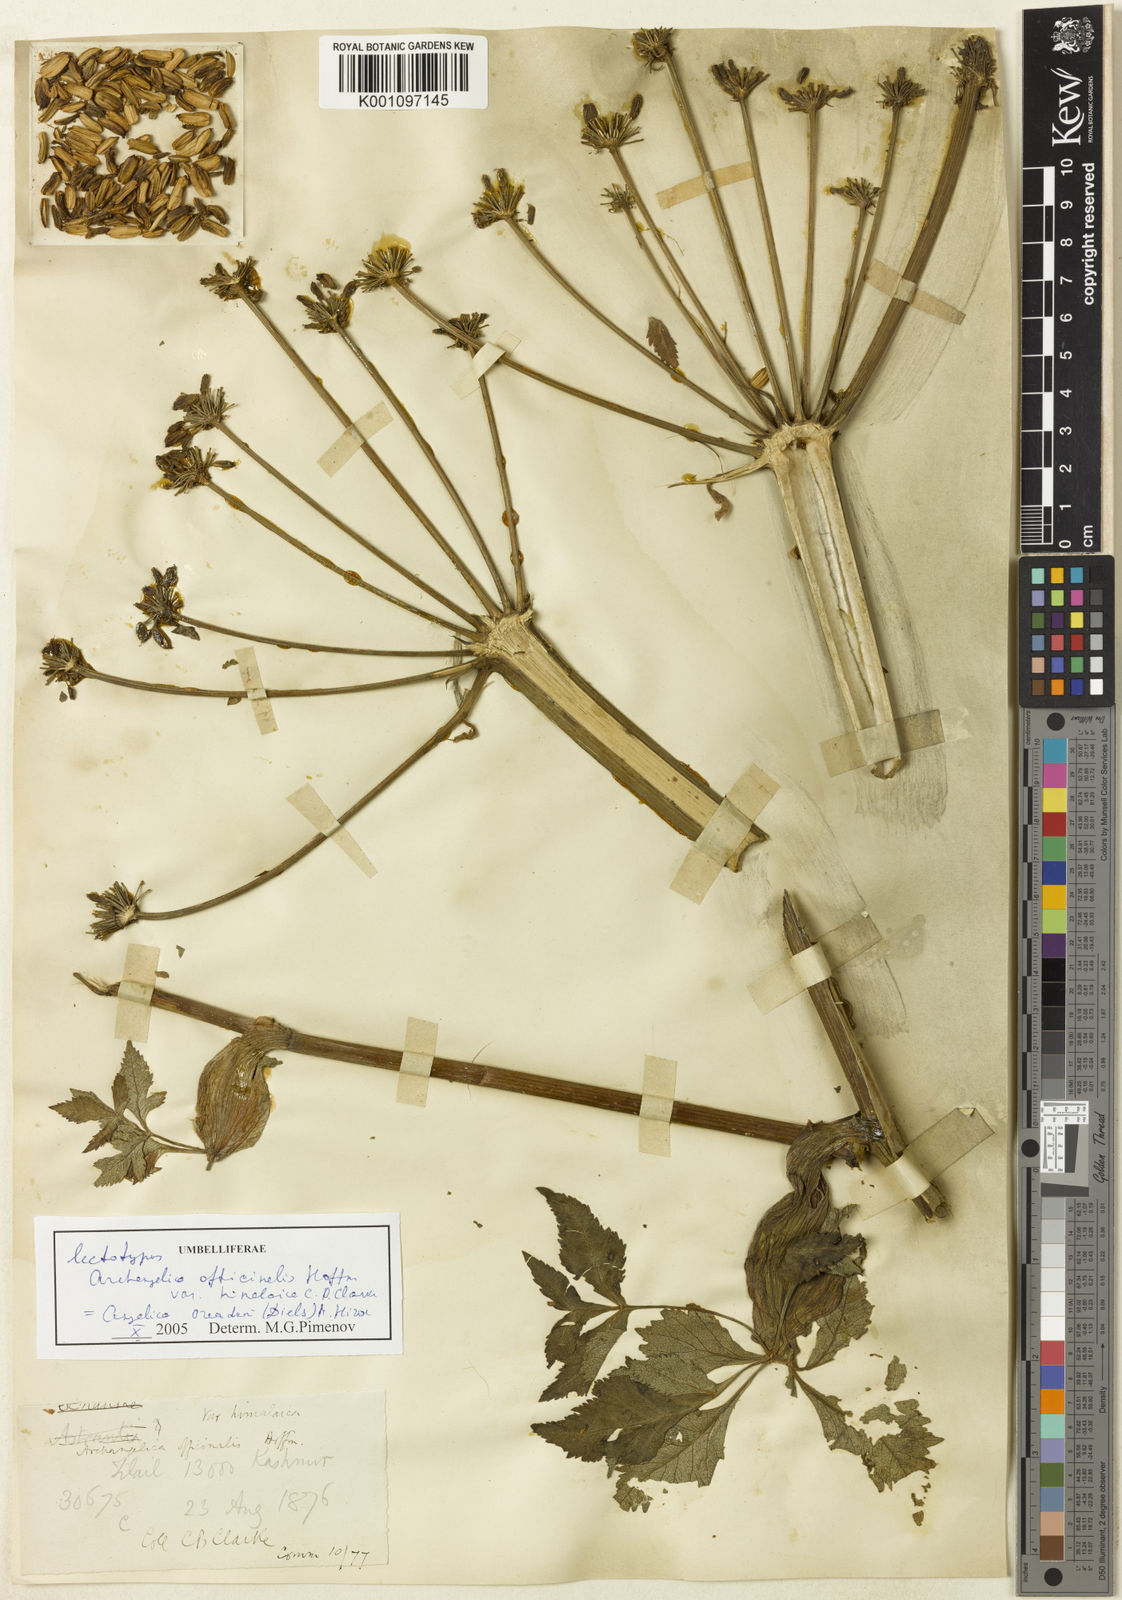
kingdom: Plantae
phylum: Tracheophyta
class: Magnoliopsida
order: Apiales
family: Apiaceae
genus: Angelica
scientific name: Angelica oreada
